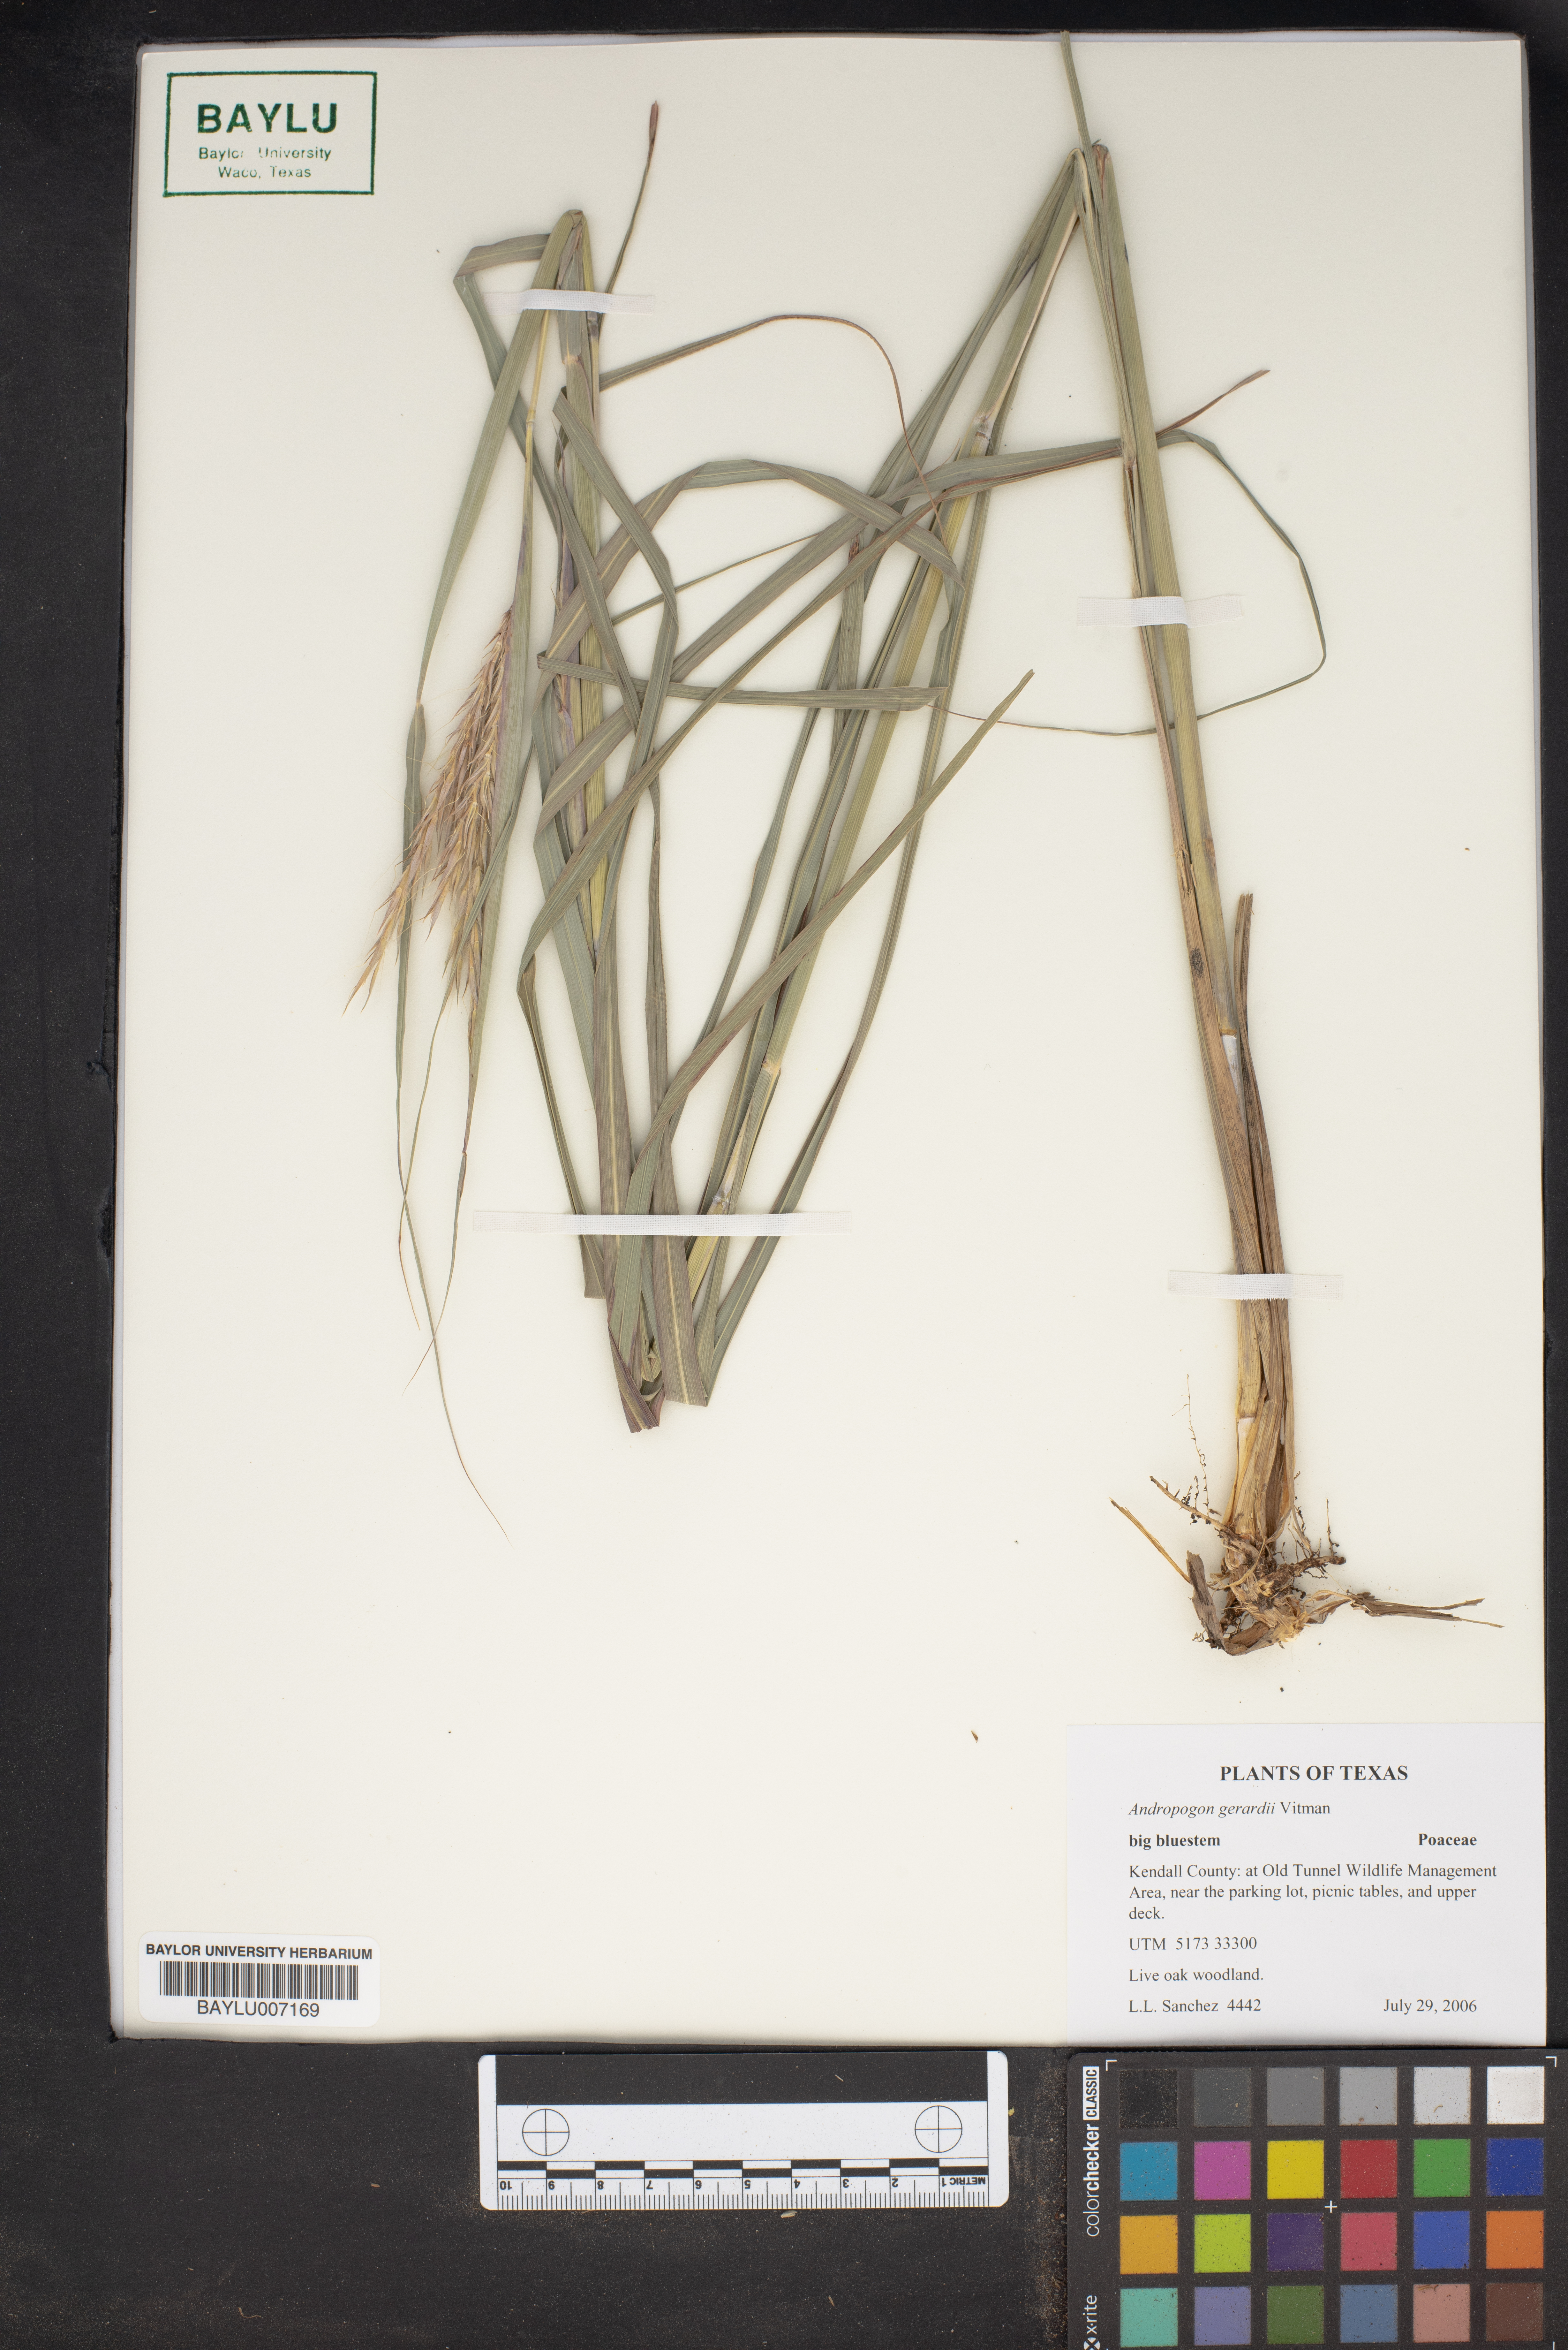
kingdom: Plantae
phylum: Tracheophyta
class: Liliopsida
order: Poales
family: Poaceae
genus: Andropogon
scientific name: Andropogon gerardi
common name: Big bluestem
